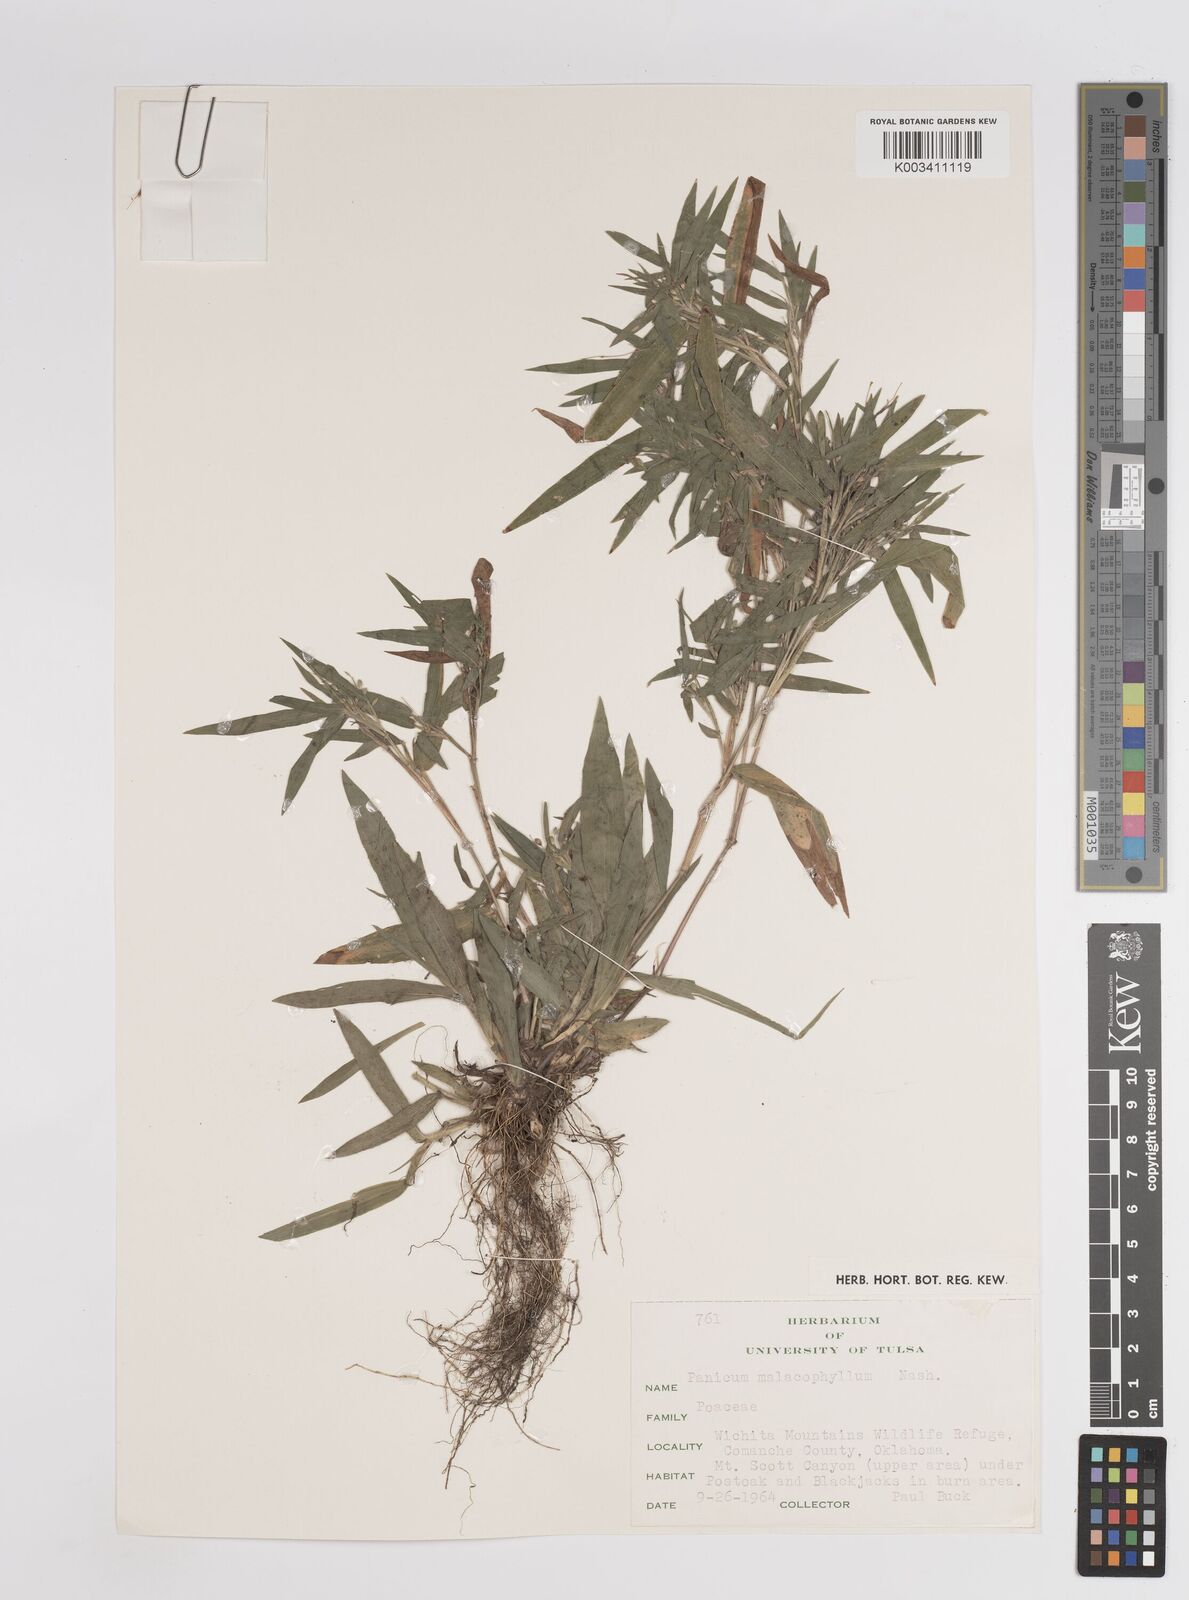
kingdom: Plantae
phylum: Tracheophyta
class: Liliopsida
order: Poales
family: Poaceae
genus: Dichanthelium
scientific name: Dichanthelium malacophyllum
